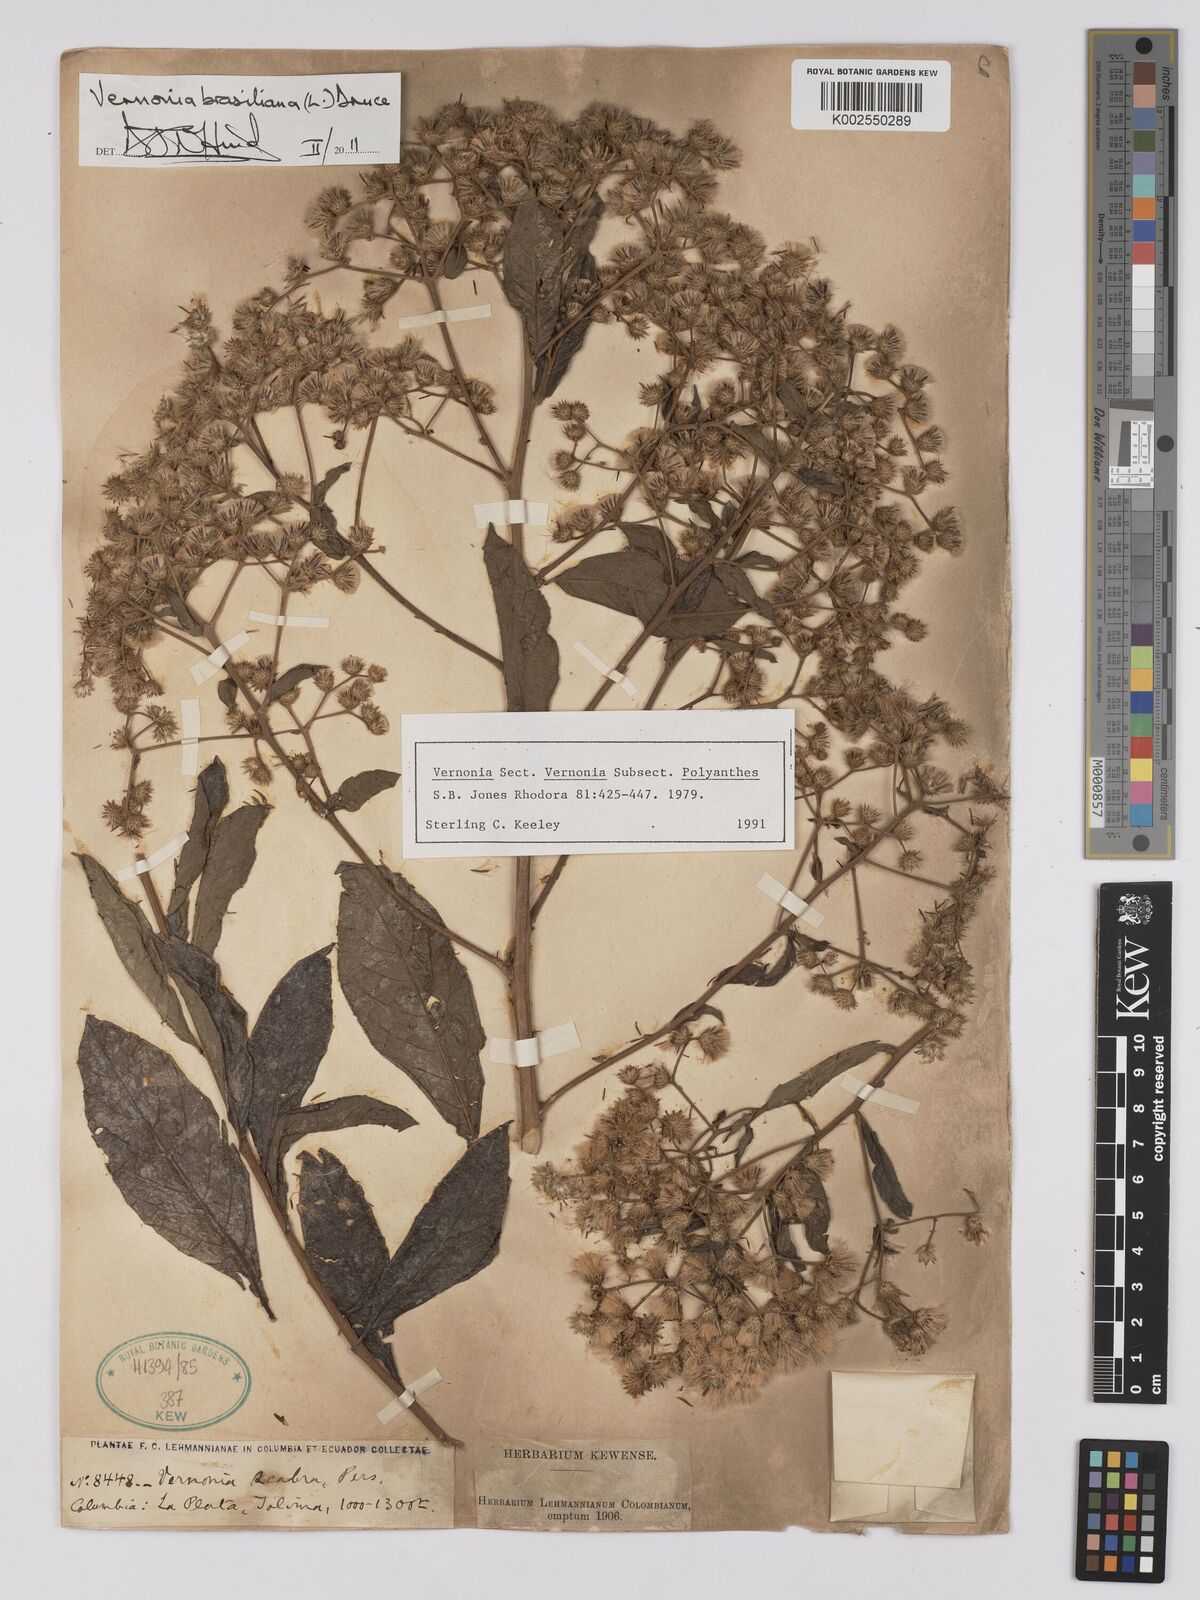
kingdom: Plantae
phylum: Tracheophyta
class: Magnoliopsida
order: Asterales
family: Asteraceae
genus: Vernonanthura
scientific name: Vernonanthura brasiliana
